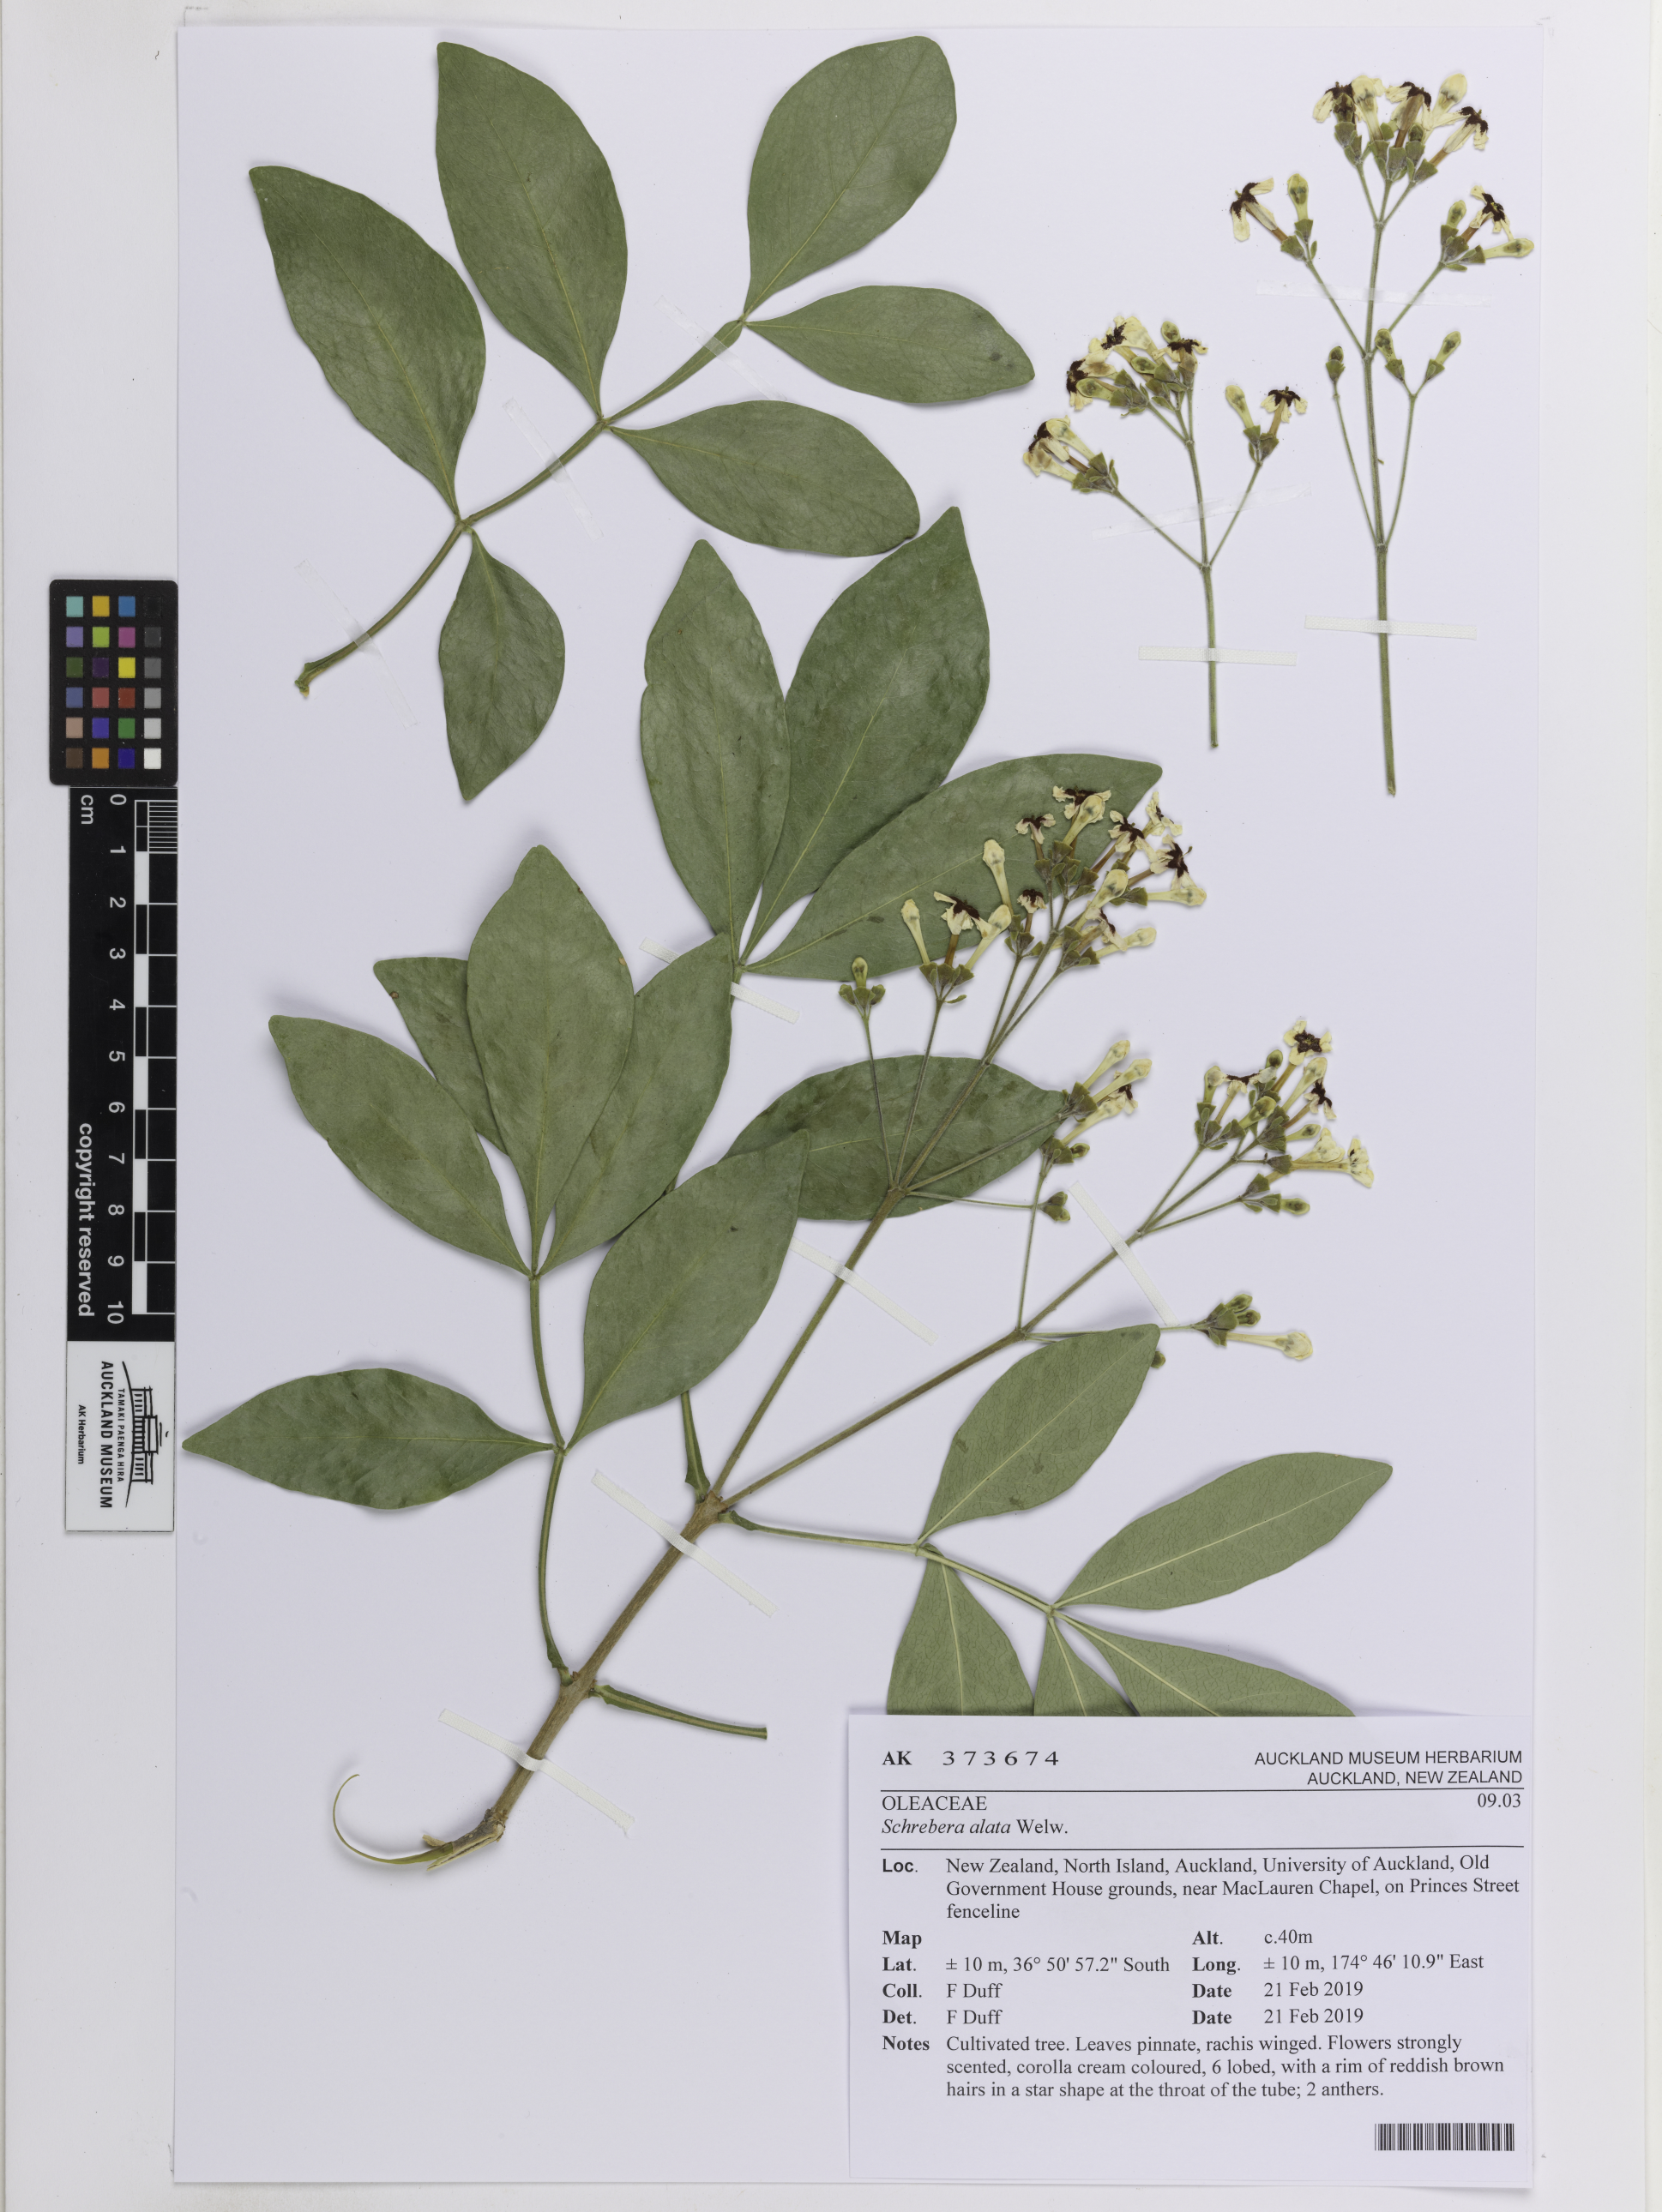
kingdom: Plantae
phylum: Tracheophyta
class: Magnoliopsida
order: Lamiales
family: Oleaceae
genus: Schrebera
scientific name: Schrebera alata
